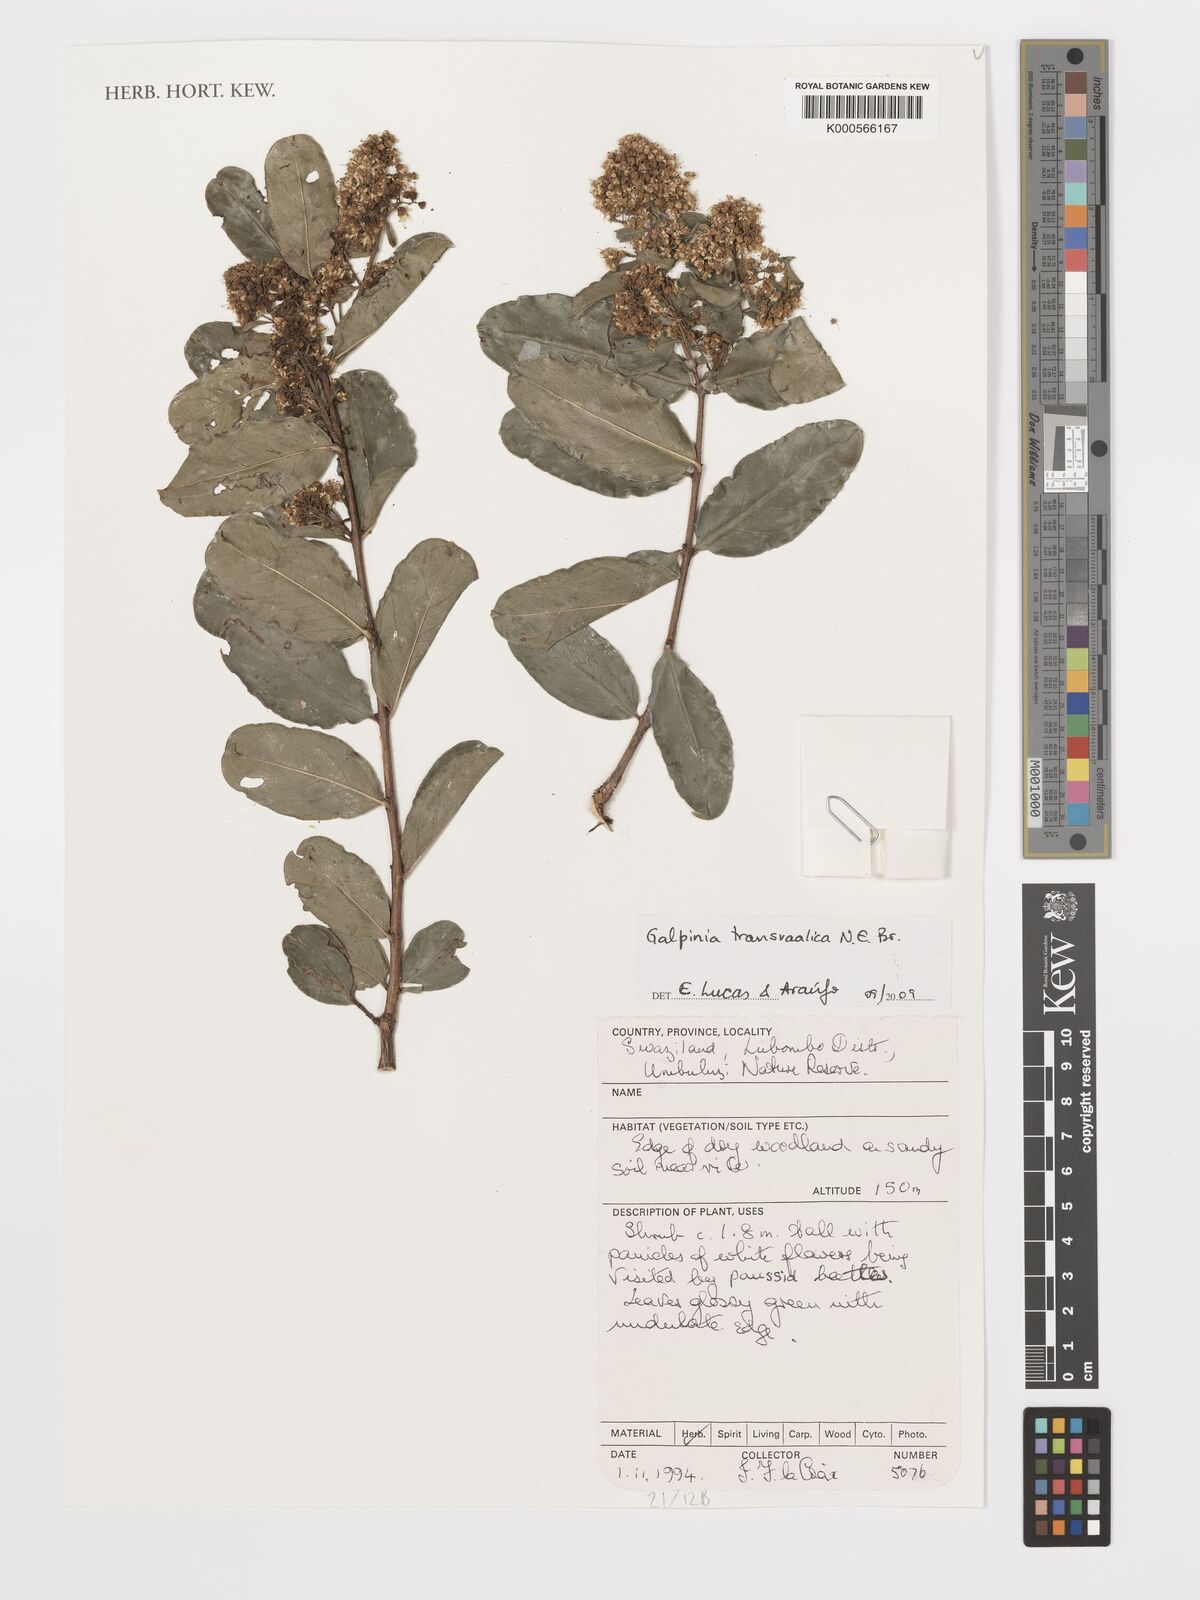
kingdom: Plantae
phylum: Tracheophyta
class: Magnoliopsida
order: Myrtales
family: Lythraceae
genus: Galpinia
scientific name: Galpinia transvaalica
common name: Wild pride of india
